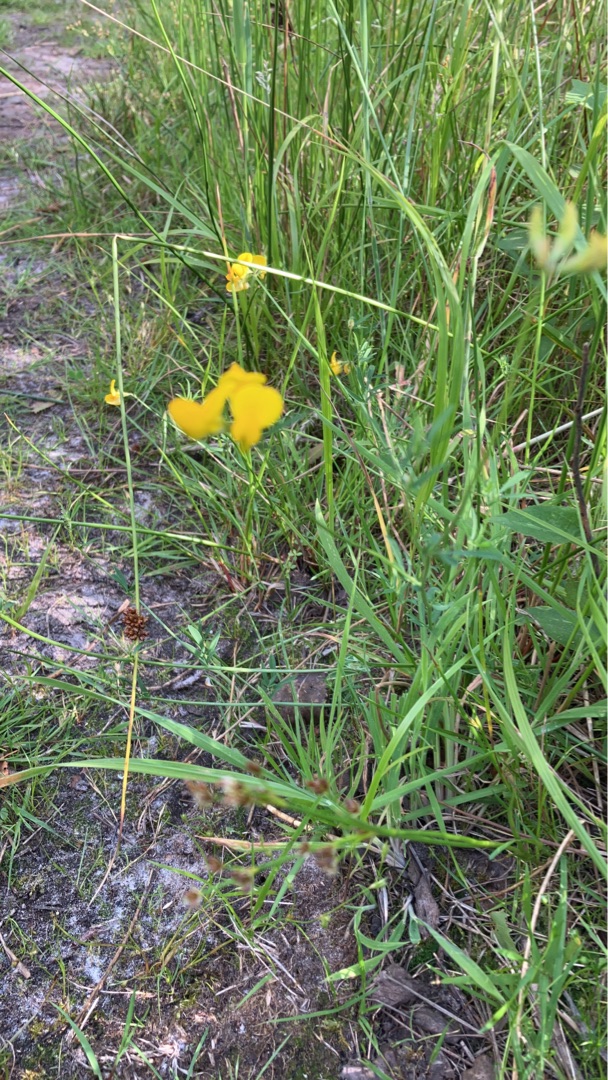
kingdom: Plantae
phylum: Tracheophyta
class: Magnoliopsida
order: Fabales
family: Fabaceae
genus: Lotus
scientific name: Lotus
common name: Kællingetandslægten
